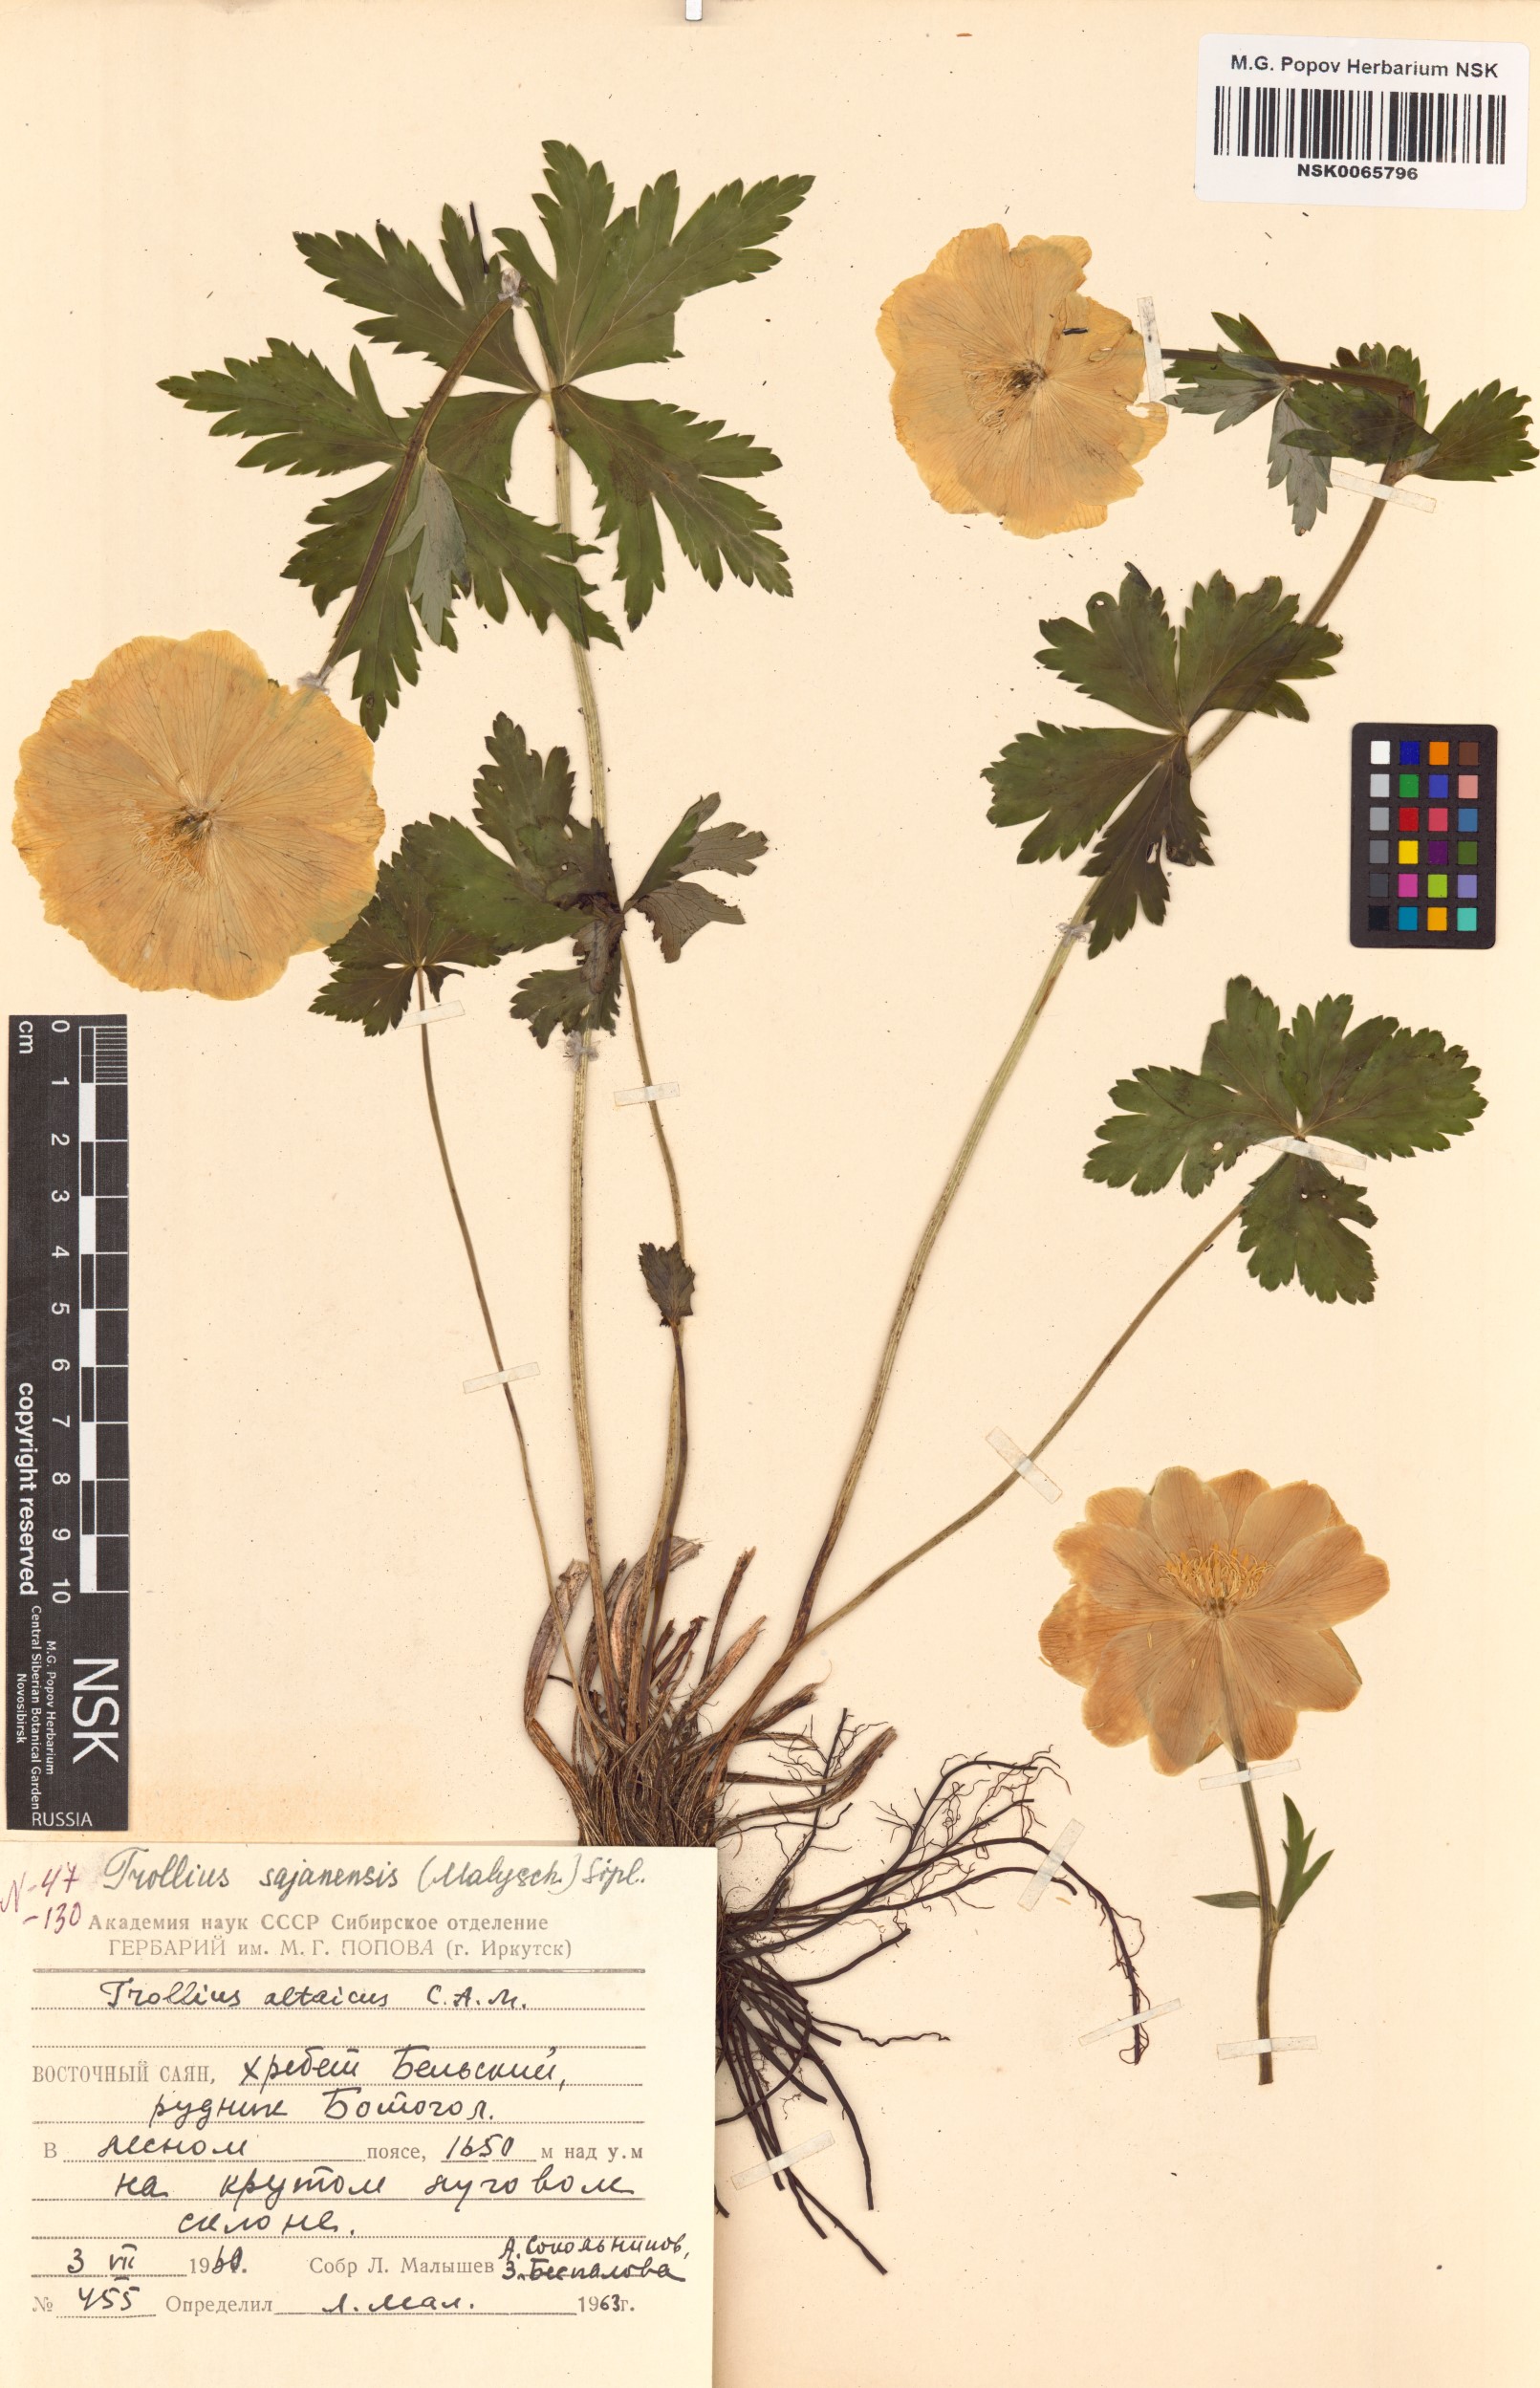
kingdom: Plantae
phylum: Tracheophyta
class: Magnoliopsida
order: Ranunculales
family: Ranunculaceae
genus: Trollius
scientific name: Trollius altaicus
